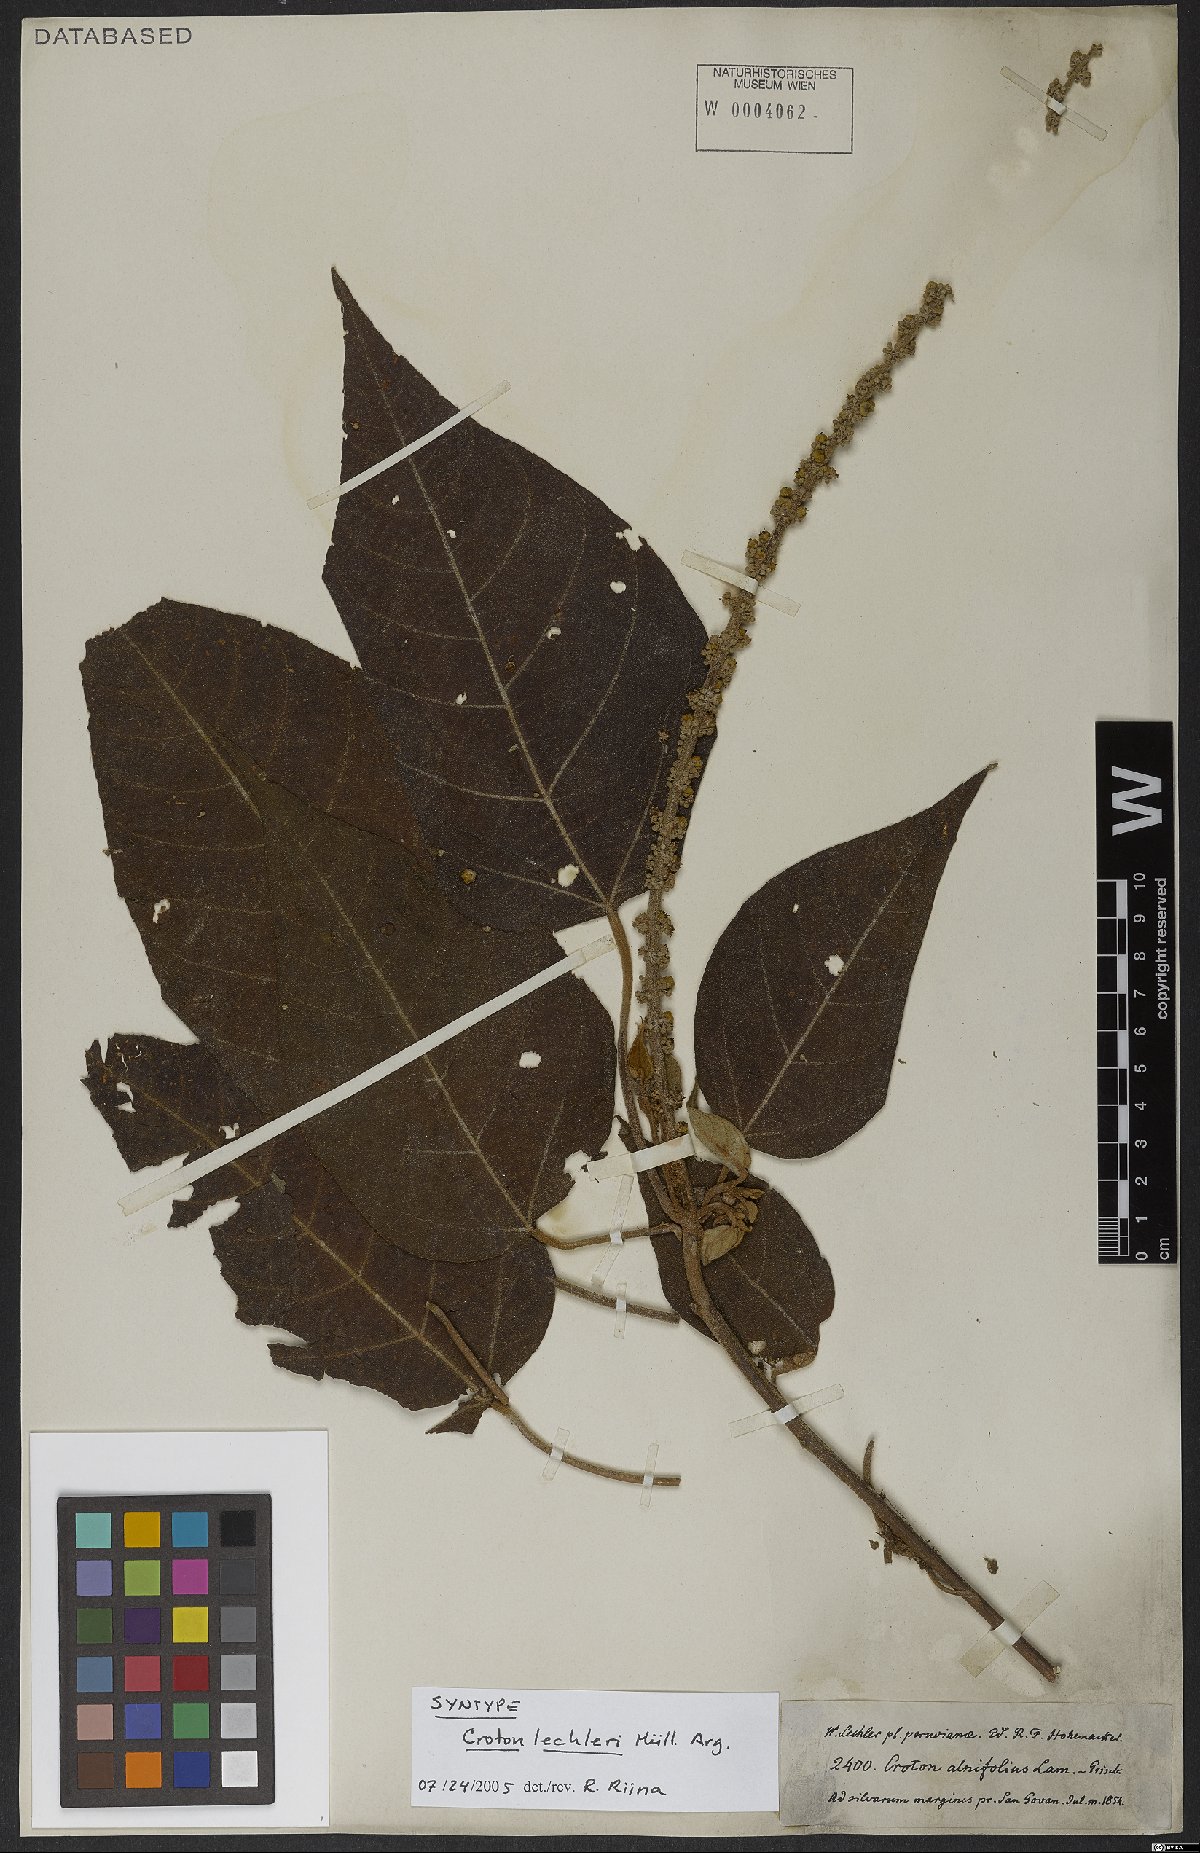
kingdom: Plantae
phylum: Tracheophyta
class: Magnoliopsida
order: Malpighiales
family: Euphorbiaceae
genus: Croton
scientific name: Croton lechleri
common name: Dragon's blood
